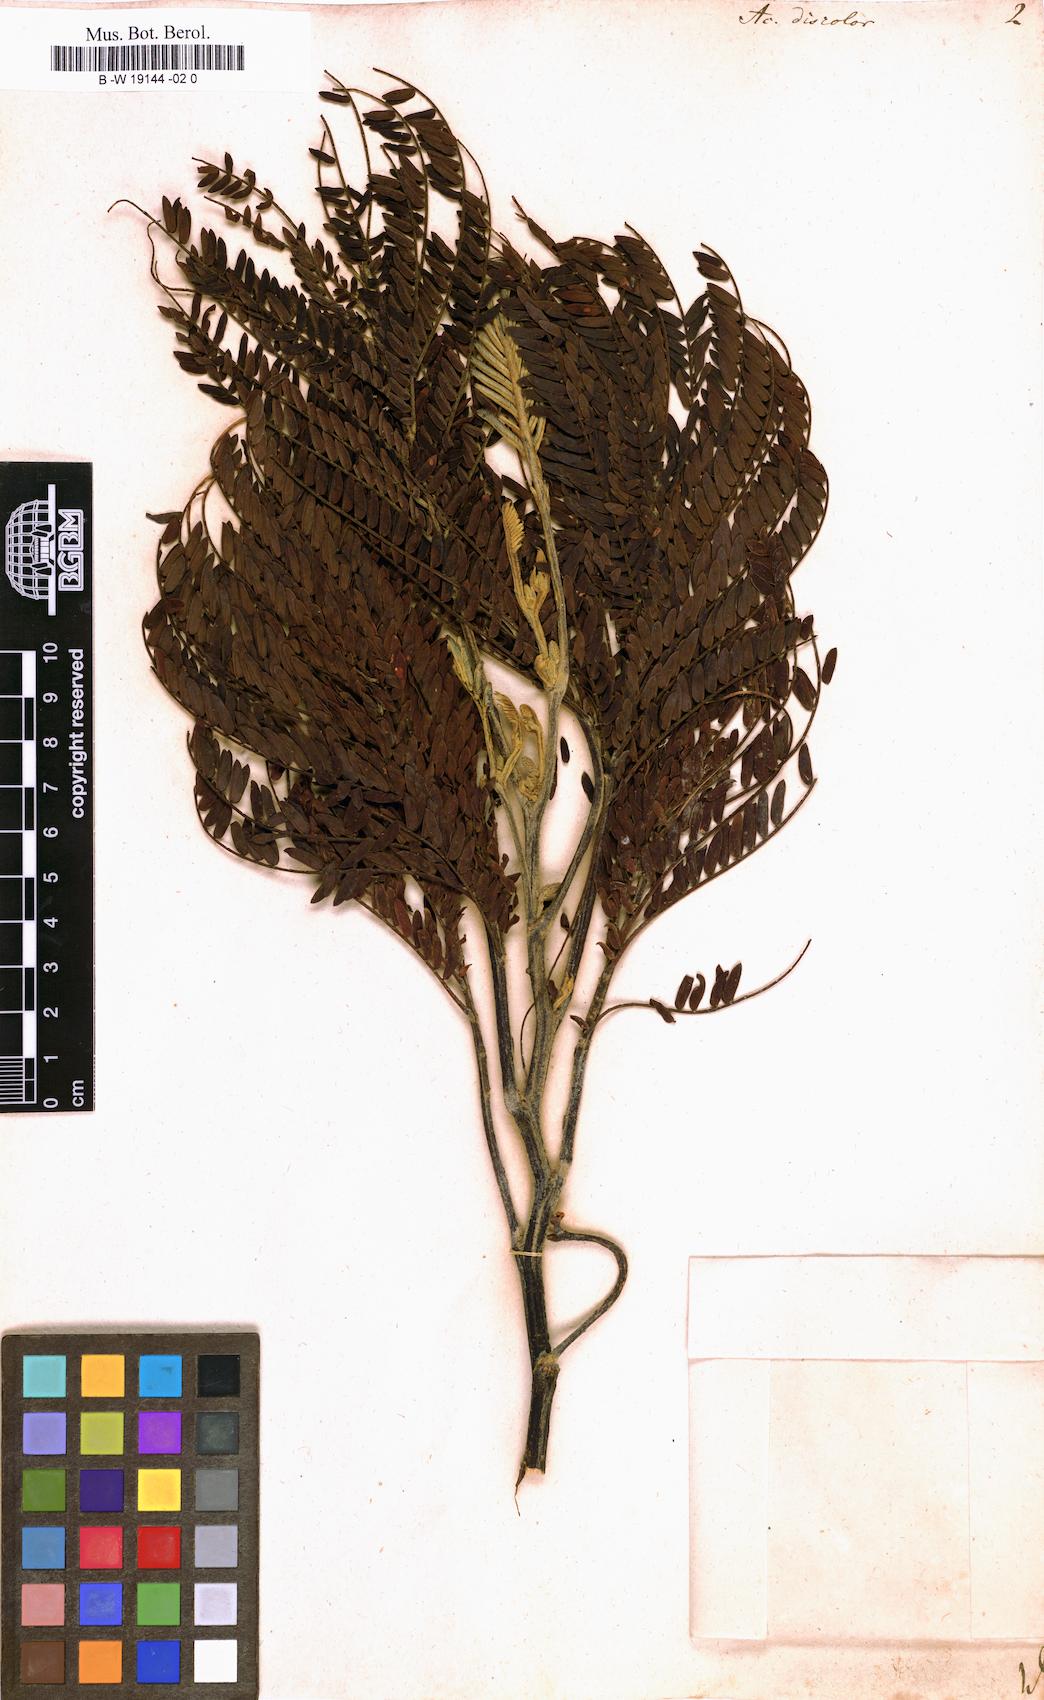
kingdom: Plantae
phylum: Tracheophyta
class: Magnoliopsida
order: Fabales
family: Fabaceae
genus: Acacia
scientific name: Acacia terminalis
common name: Cedar wattle
